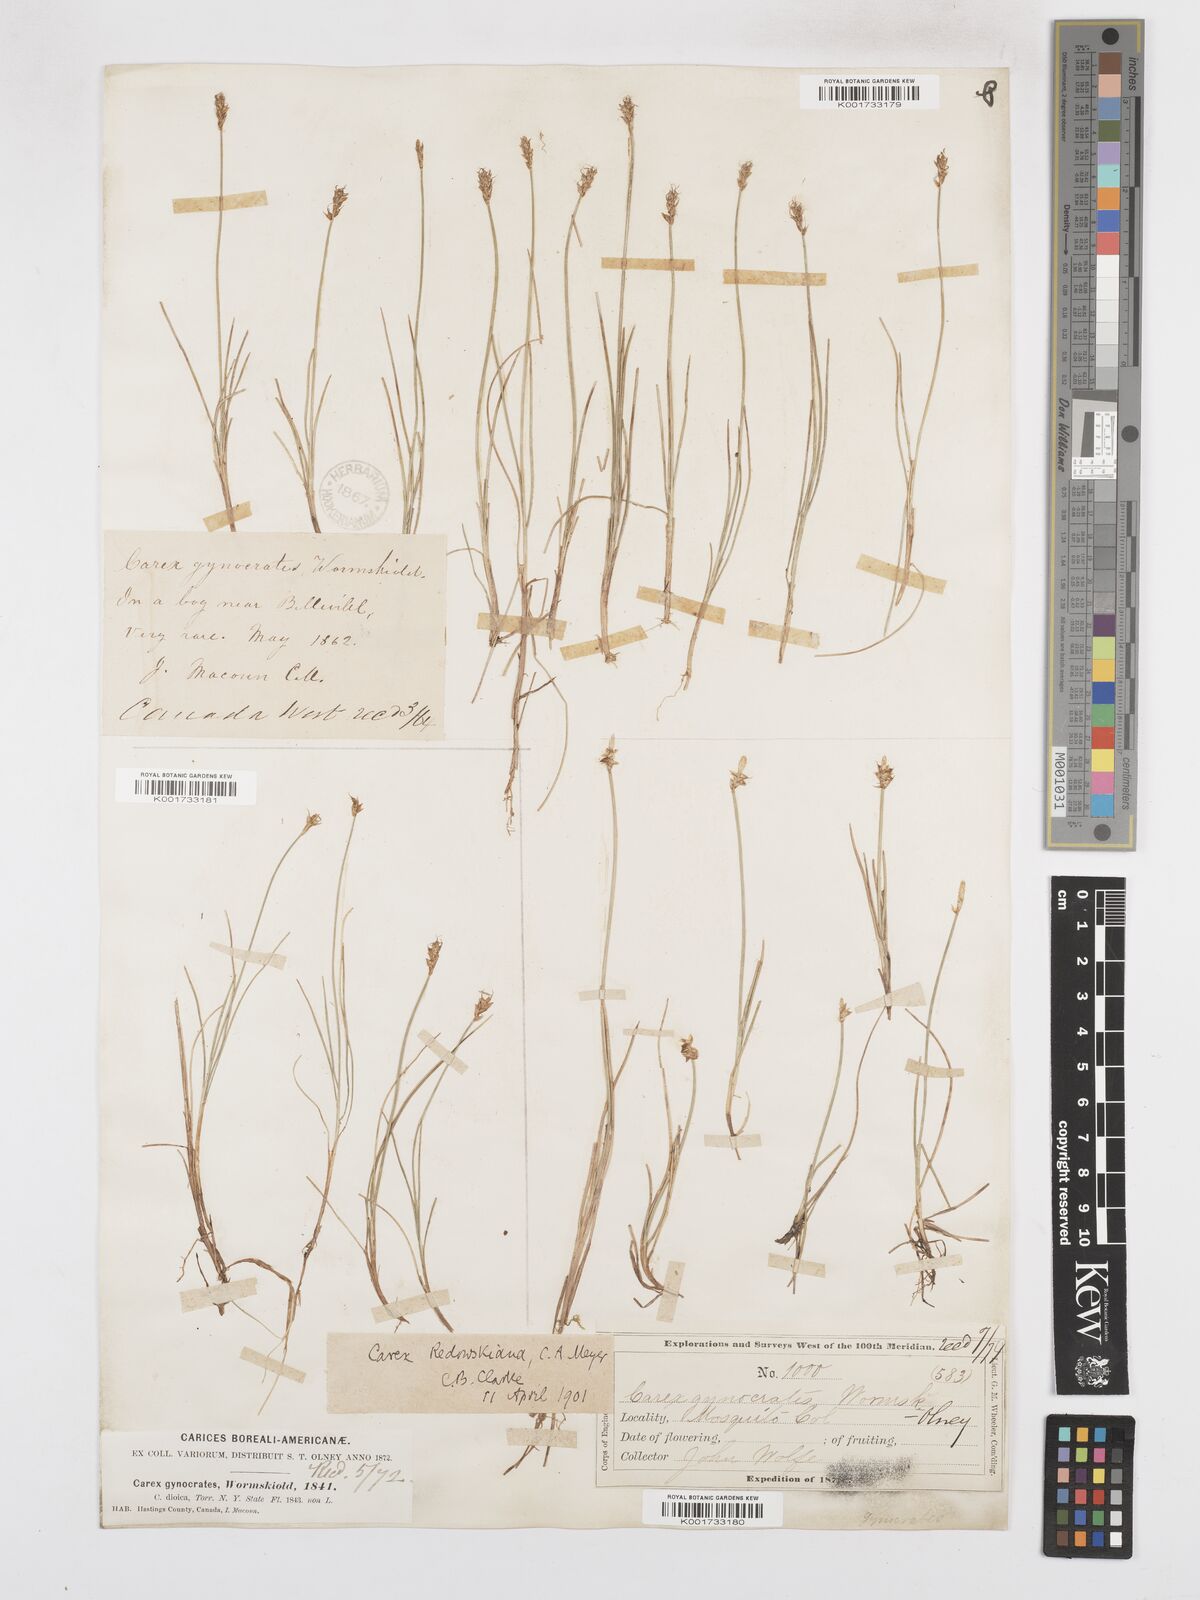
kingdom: Plantae
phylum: Tracheophyta
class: Liliopsida
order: Poales
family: Cyperaceae
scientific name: Cyperaceae
